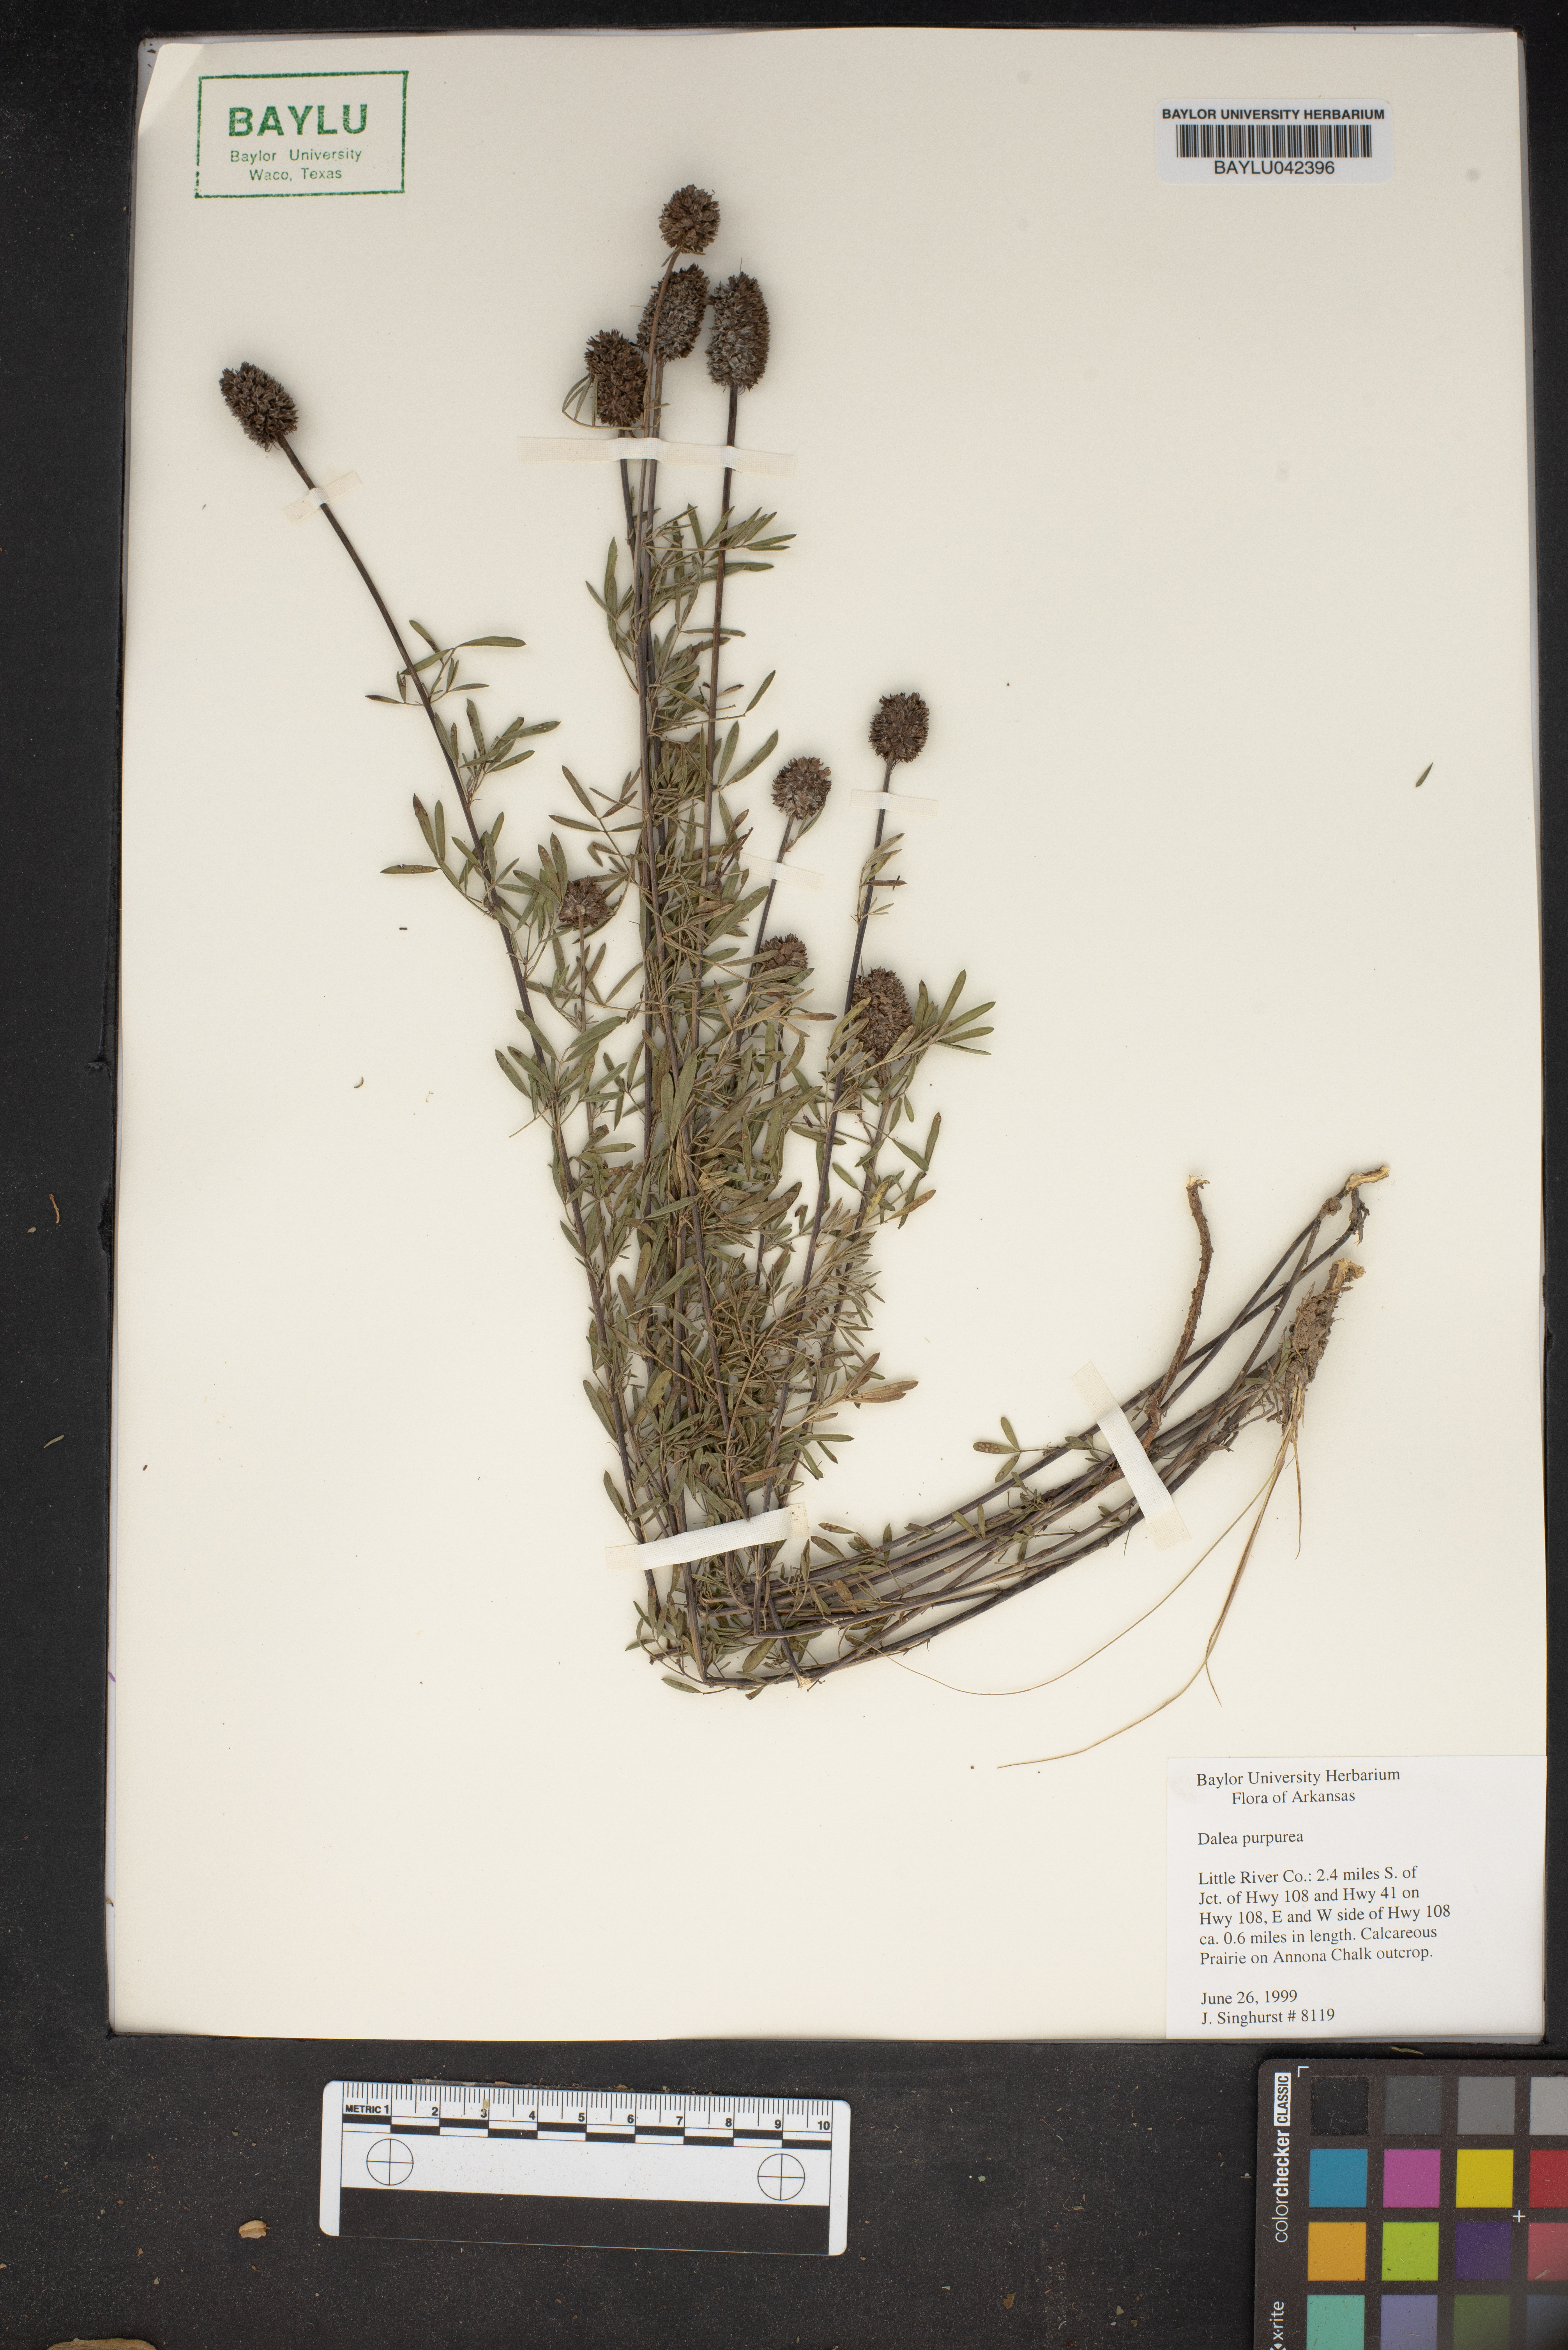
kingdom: Plantae
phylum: Tracheophyta
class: Magnoliopsida
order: Fabales
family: Fabaceae
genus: Dalea
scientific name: Dalea purpurea
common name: Purple prairie-clover
